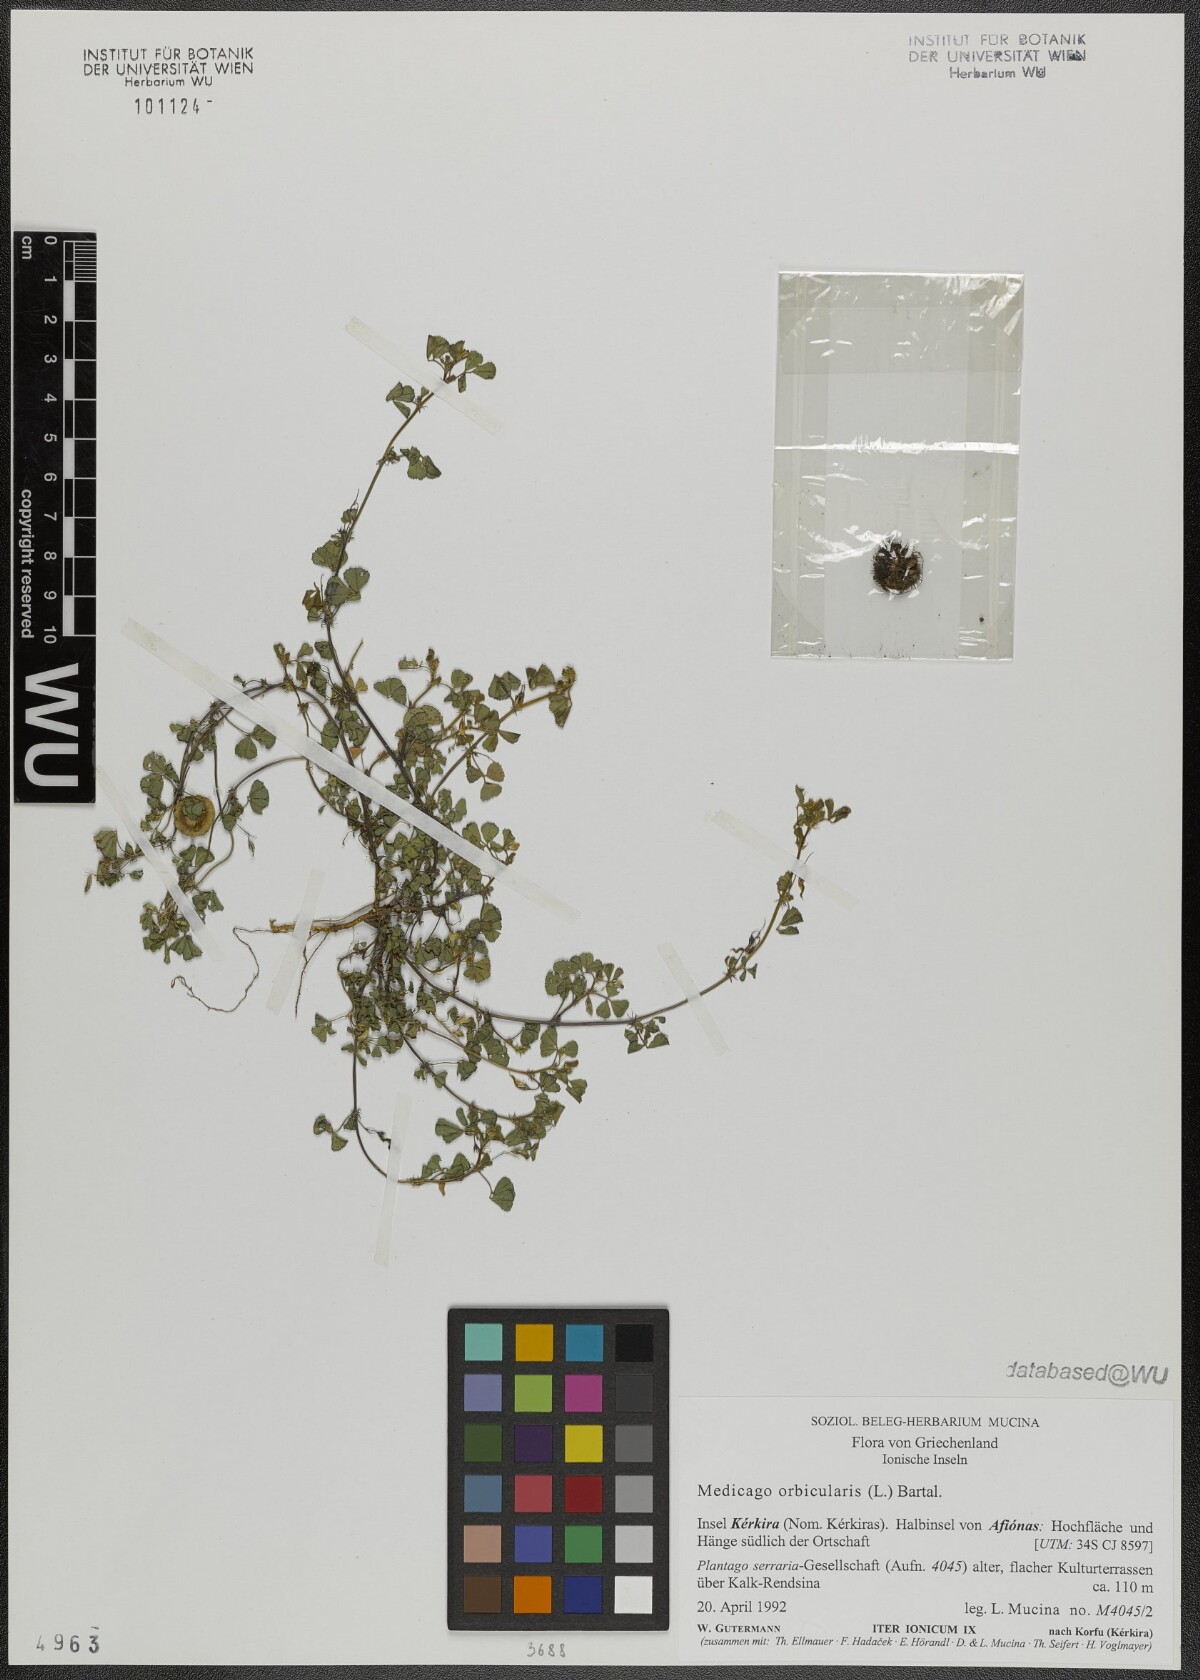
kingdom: Plantae
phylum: Tracheophyta
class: Magnoliopsida
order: Fabales
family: Fabaceae
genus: Medicago
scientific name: Medicago orbicularis
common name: Button medick
